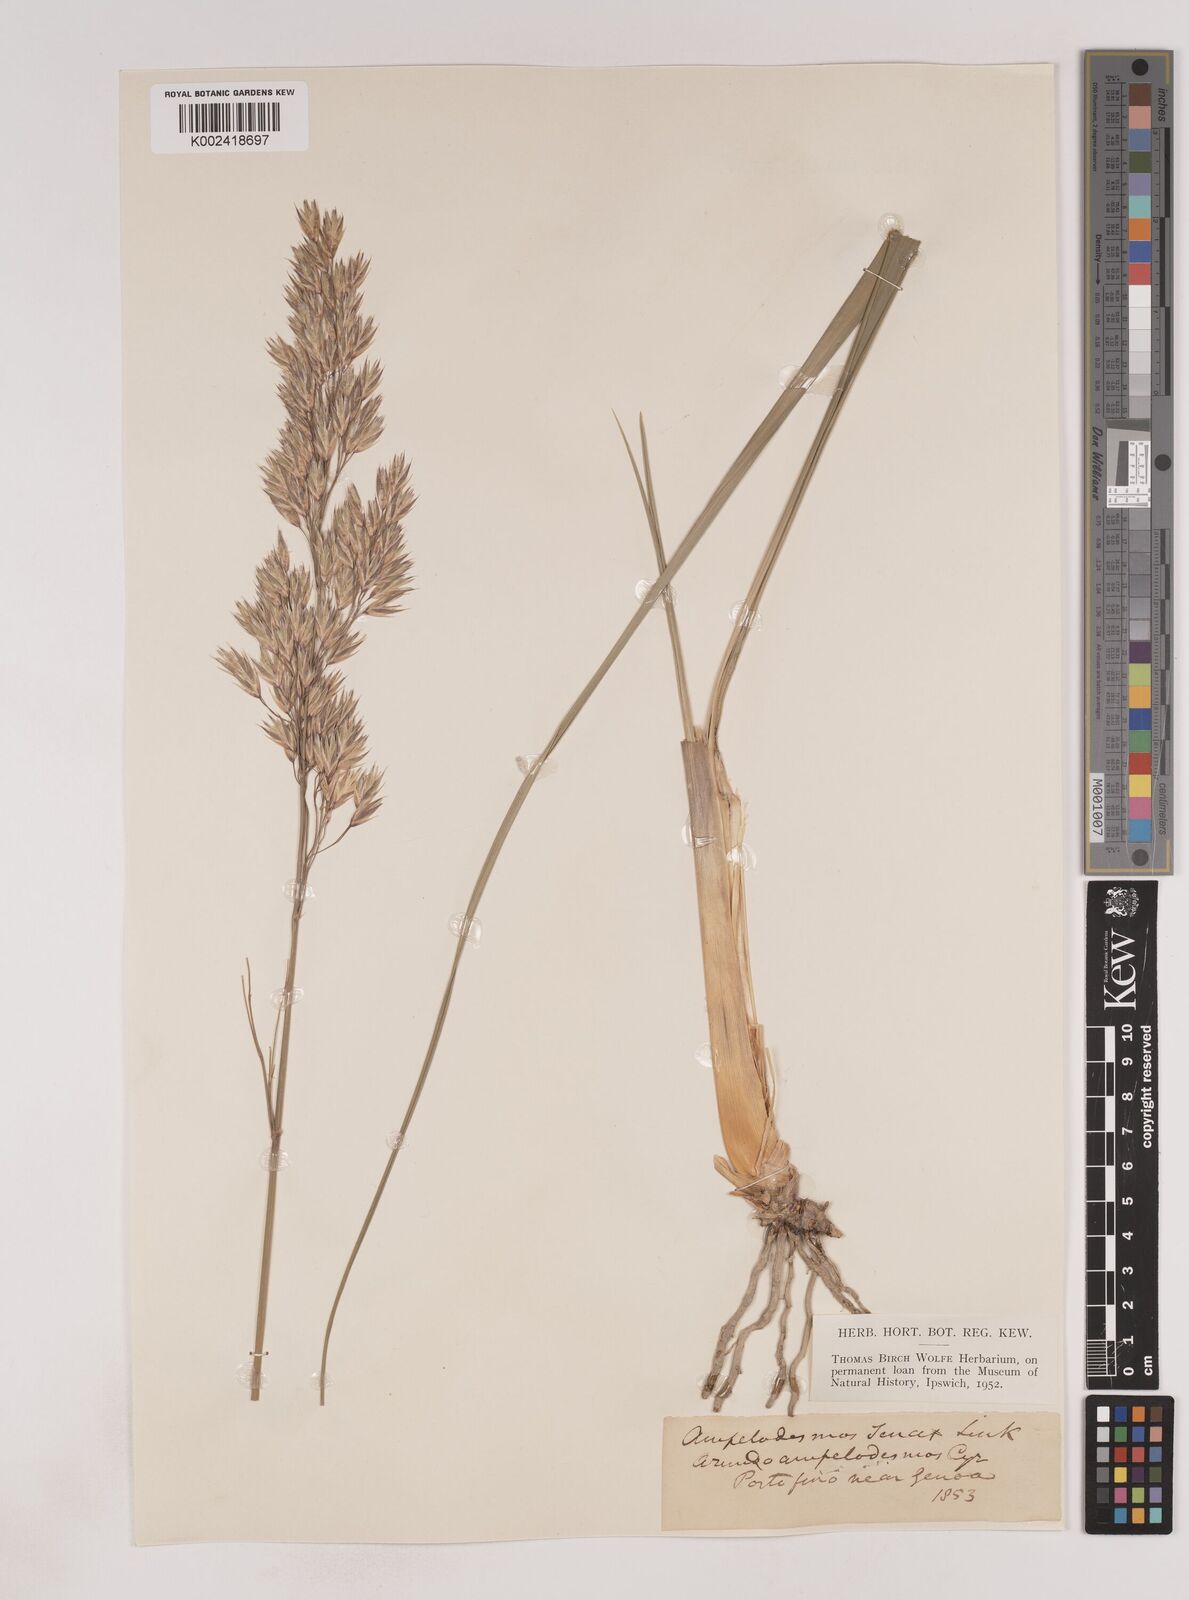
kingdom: Plantae
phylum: Tracheophyta
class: Liliopsida
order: Poales
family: Poaceae
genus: Ampelodesmos
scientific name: Ampelodesmos mauritanicus
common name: Mauritanian grass
